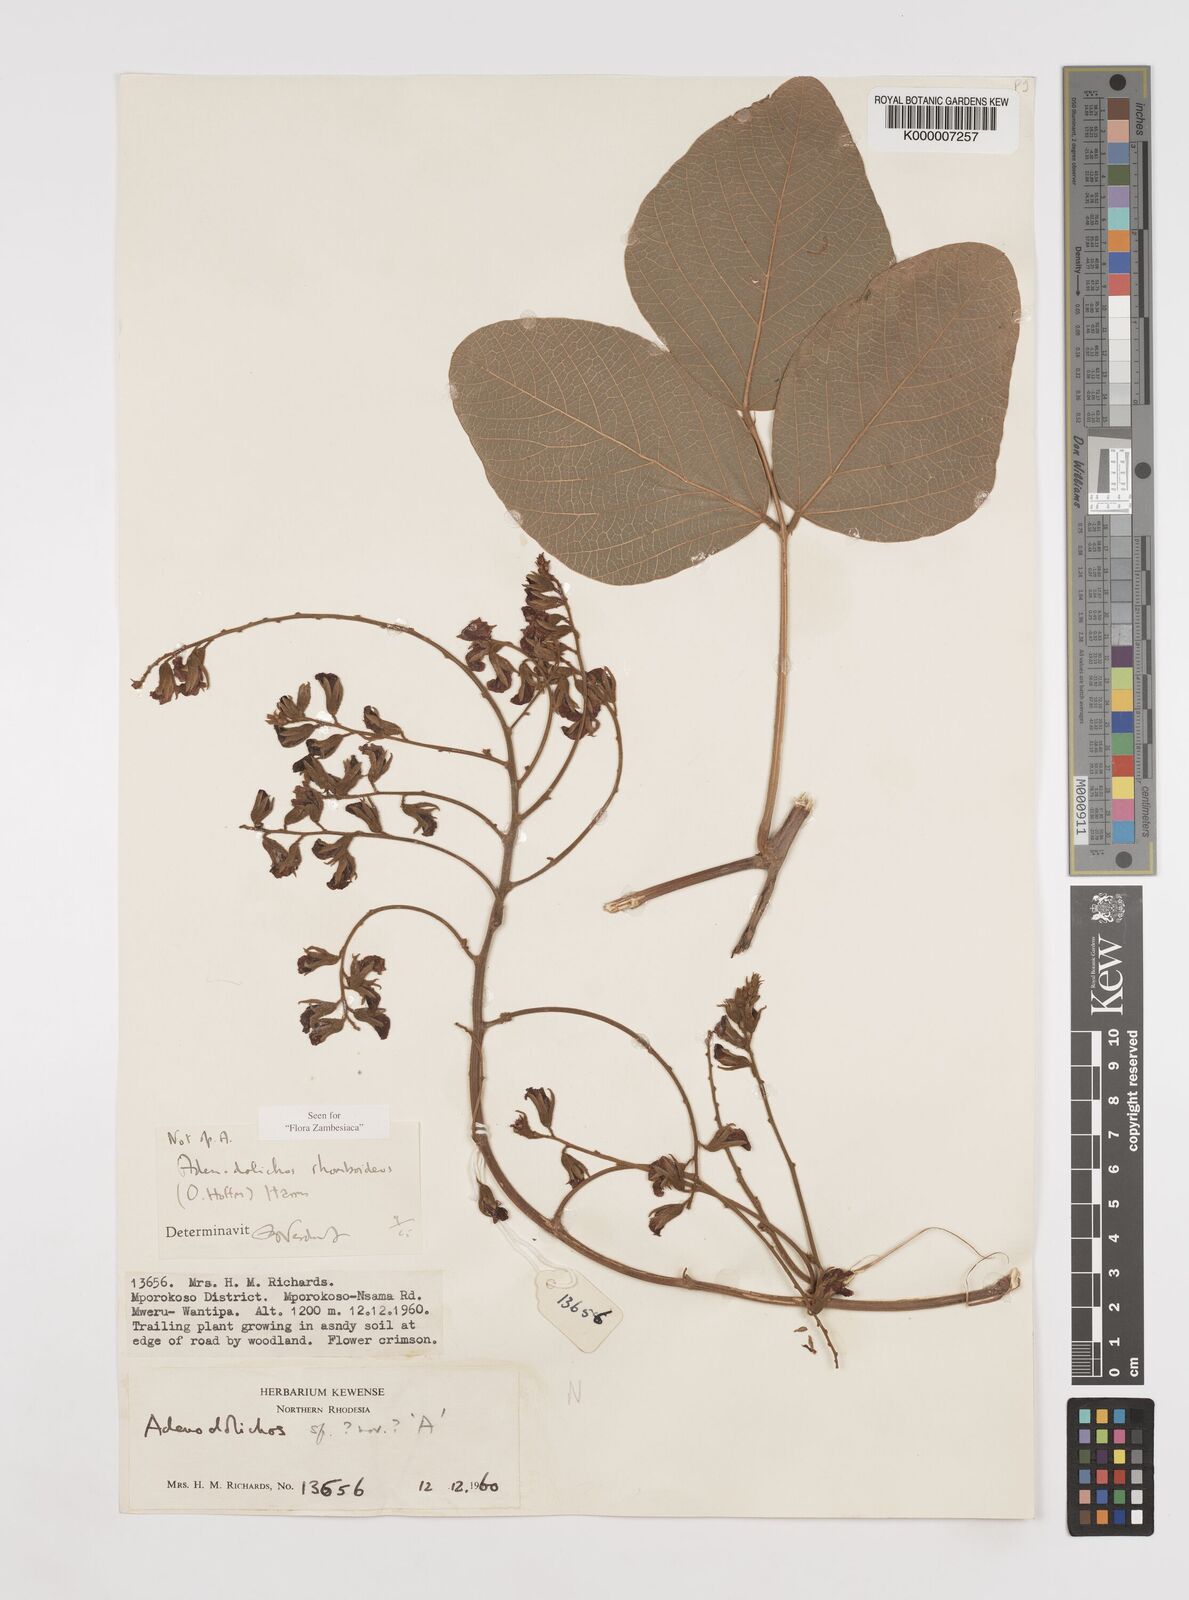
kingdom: Plantae
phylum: Tracheophyta
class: Magnoliopsida
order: Fabales
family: Fabaceae
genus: Adenodolichos
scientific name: Adenodolichos rhomboideus
